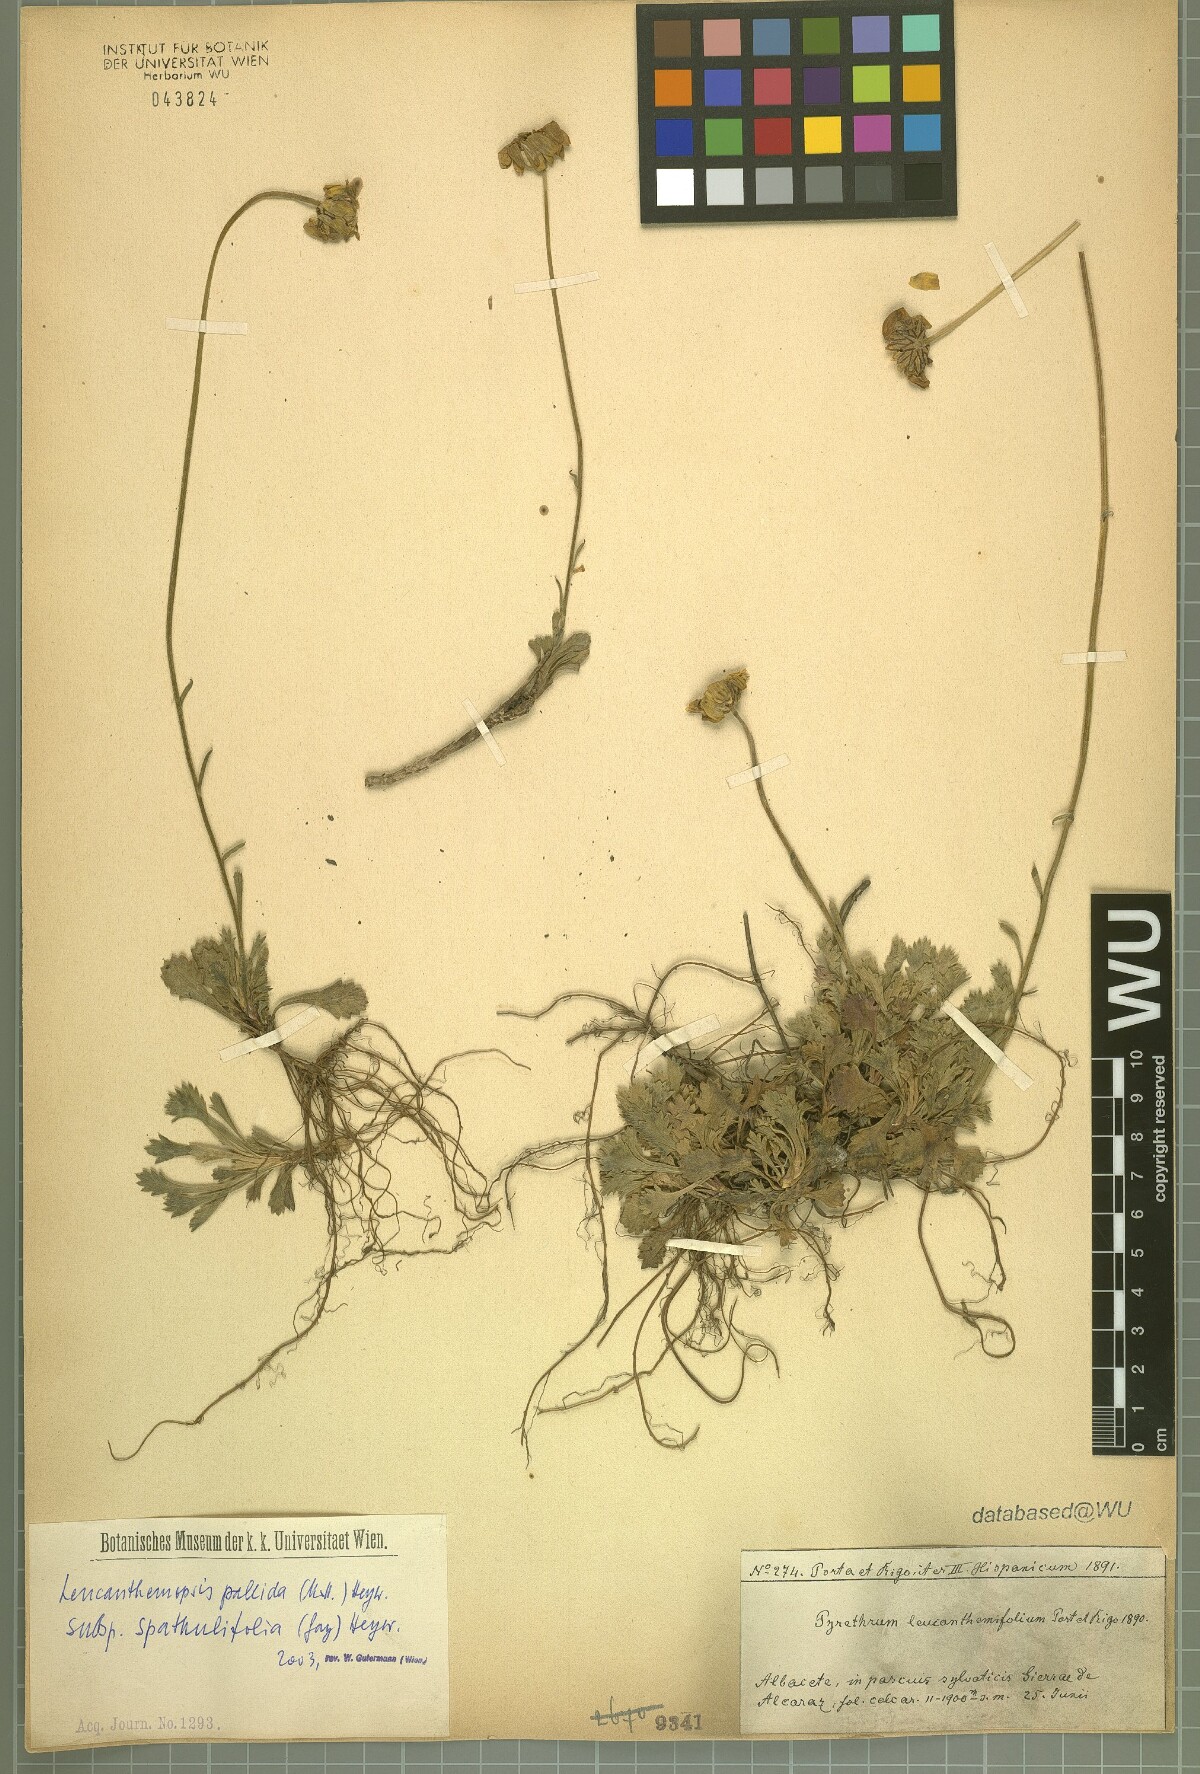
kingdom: Plantae
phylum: Tracheophyta
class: Magnoliopsida
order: Asterales
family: Asteraceae
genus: Leucanthemopsis
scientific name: Leucanthemopsis spathulifolia
